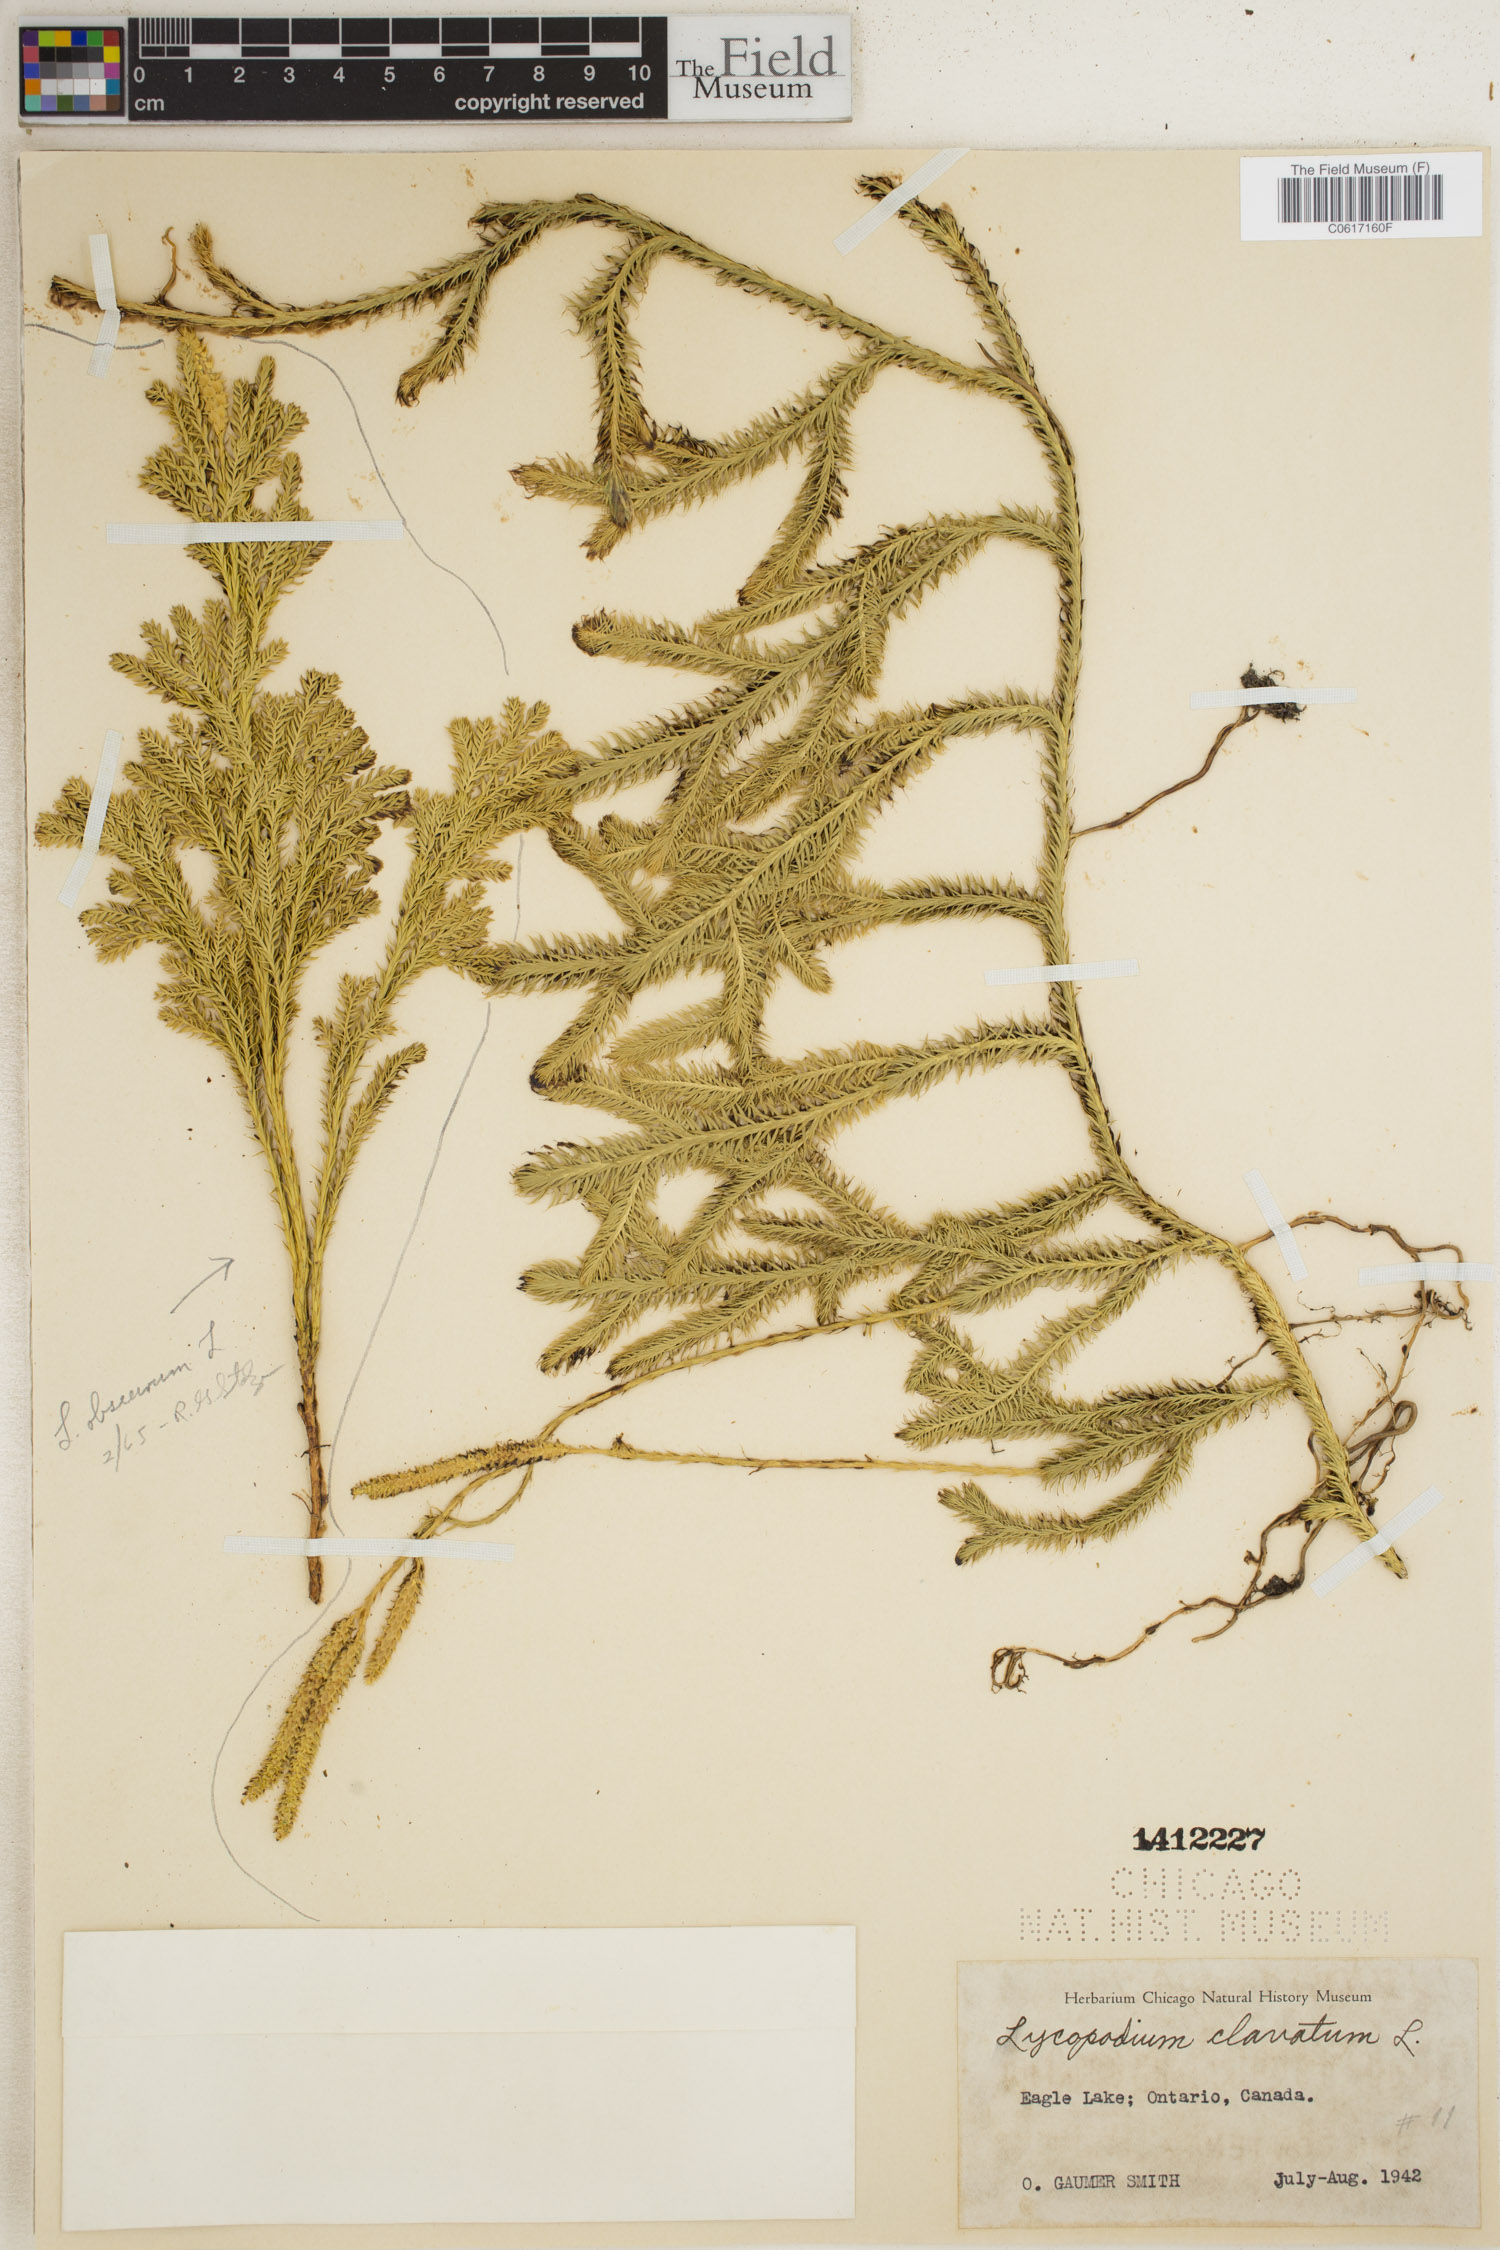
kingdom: Plantae
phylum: Tracheophyta
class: Lycopodiopsida
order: Lycopodiales
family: Lycopodiaceae
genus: Lycopodium
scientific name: Lycopodium clavatum
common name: Stag's-horn clubmoss
